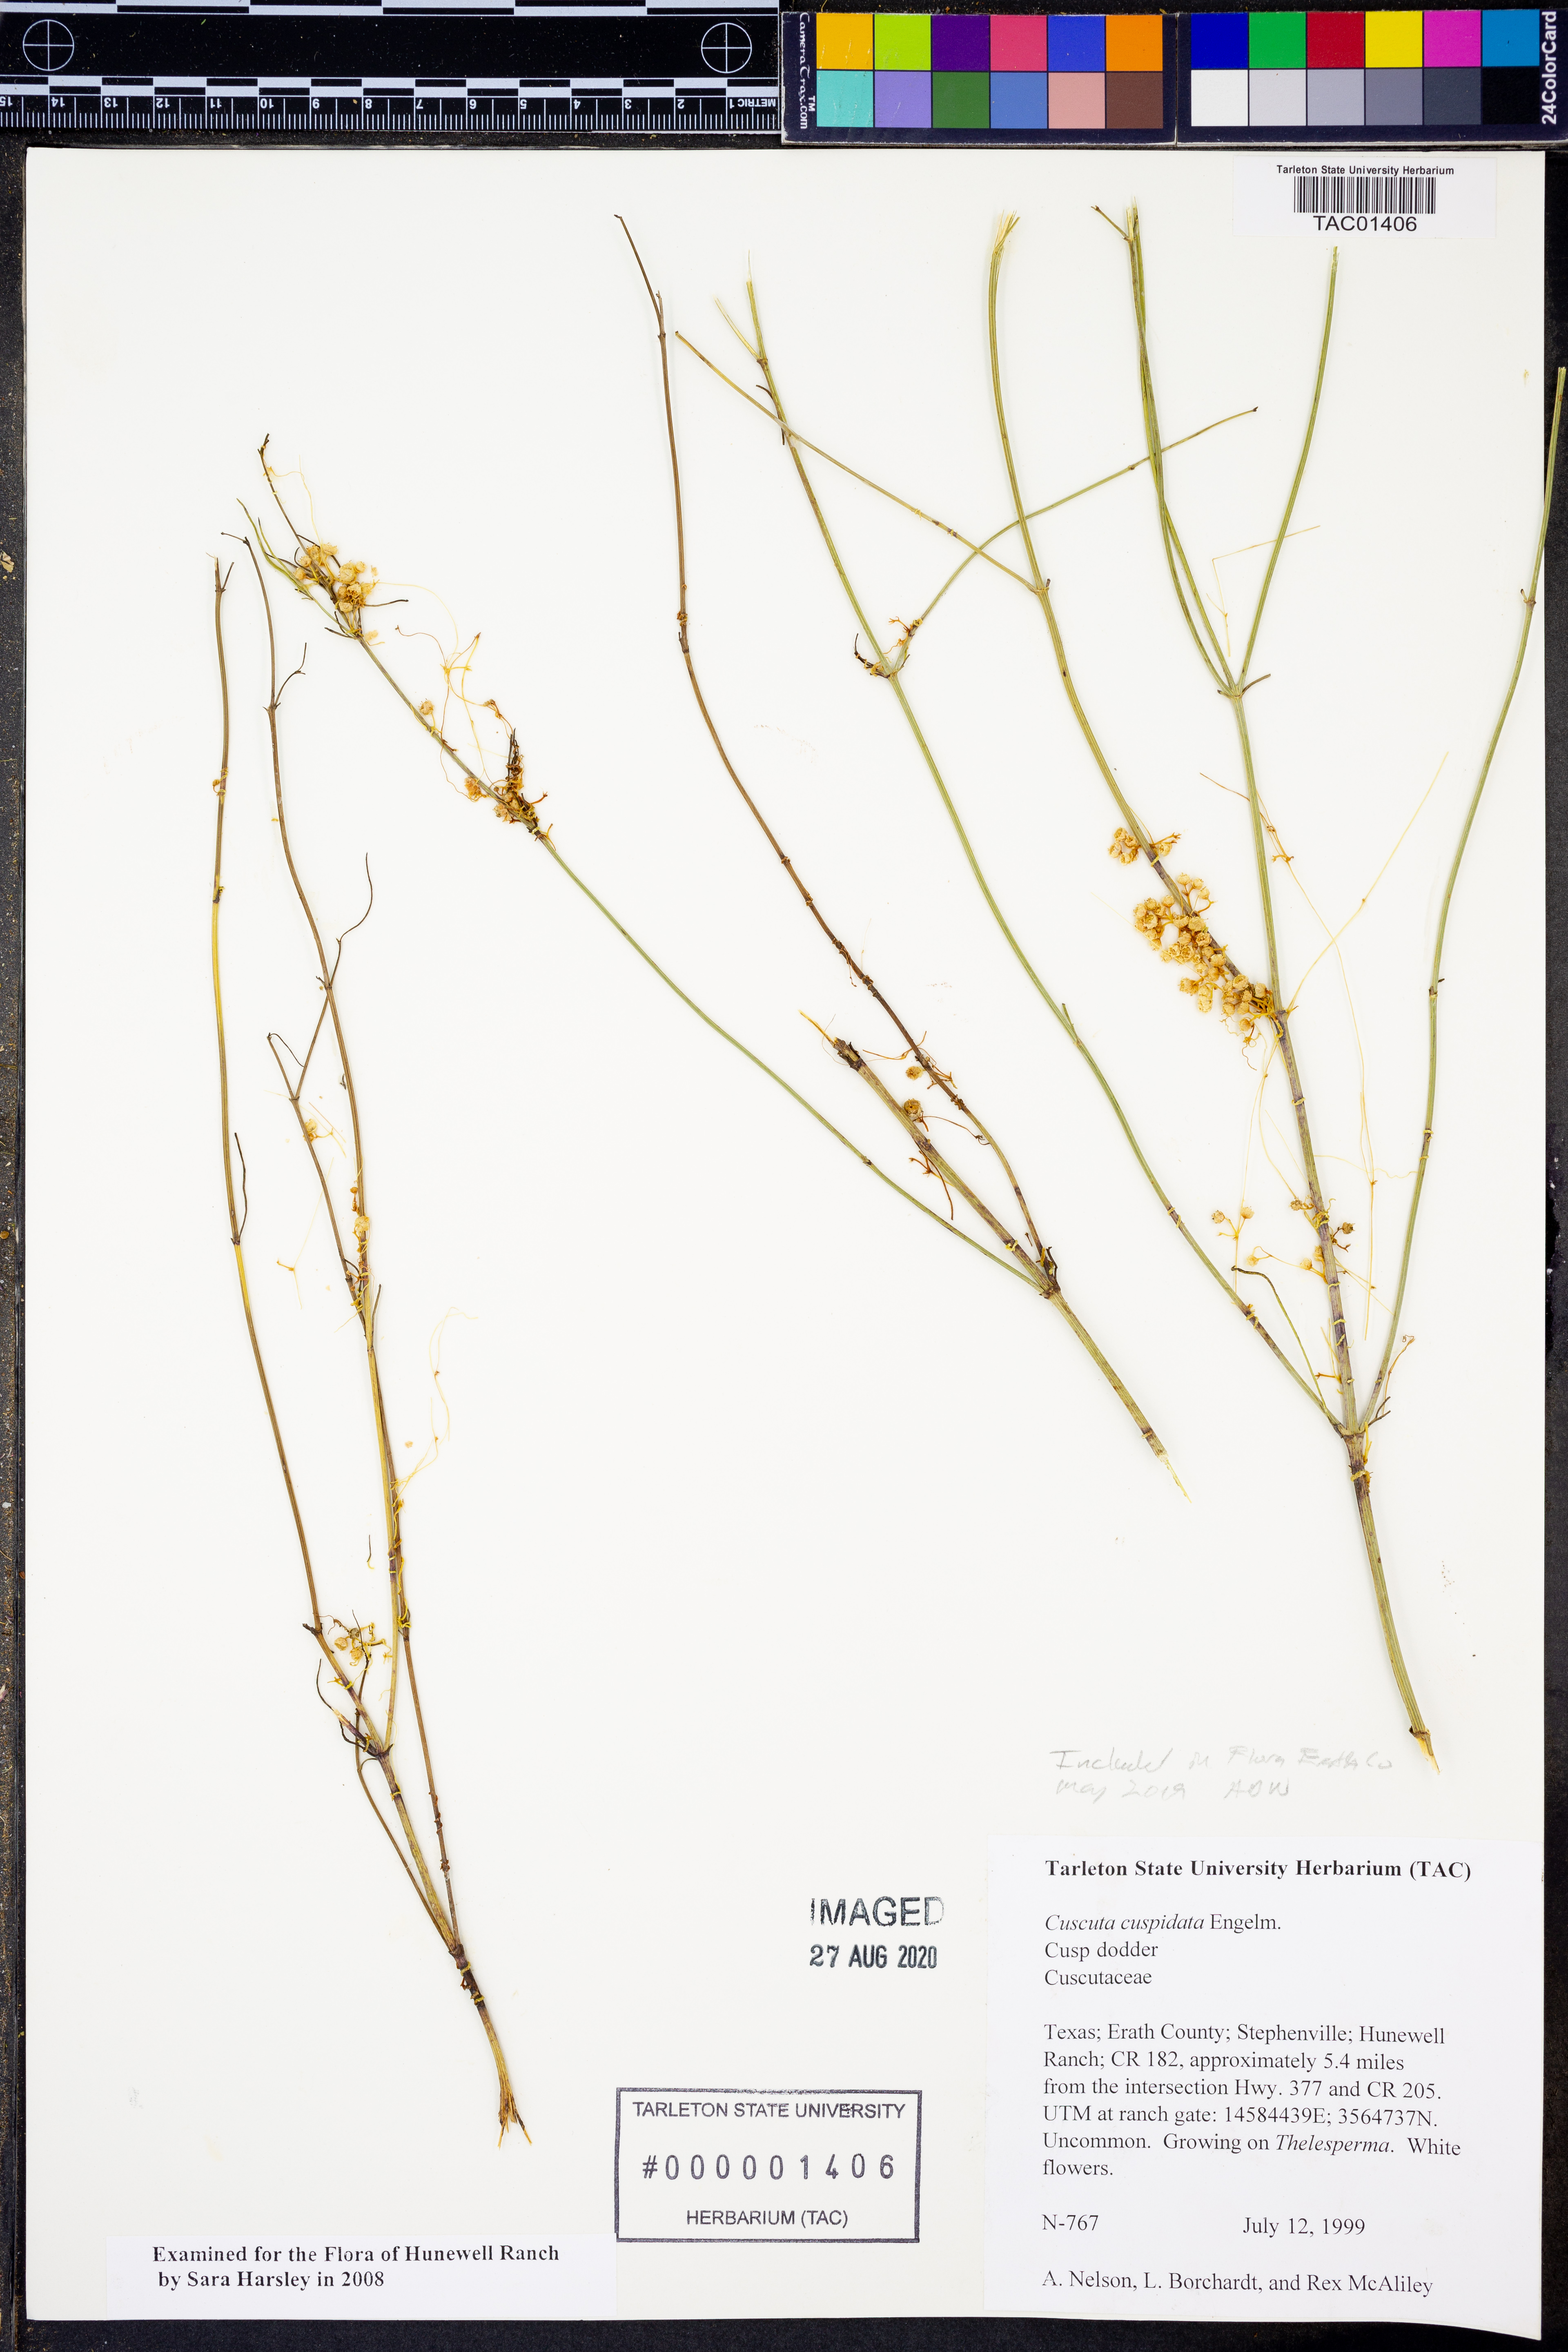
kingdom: Plantae
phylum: Tracheophyta
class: Magnoliopsida
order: Solanales
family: Convolvulaceae
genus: Cuscuta
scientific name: Cuscuta cuspidata
